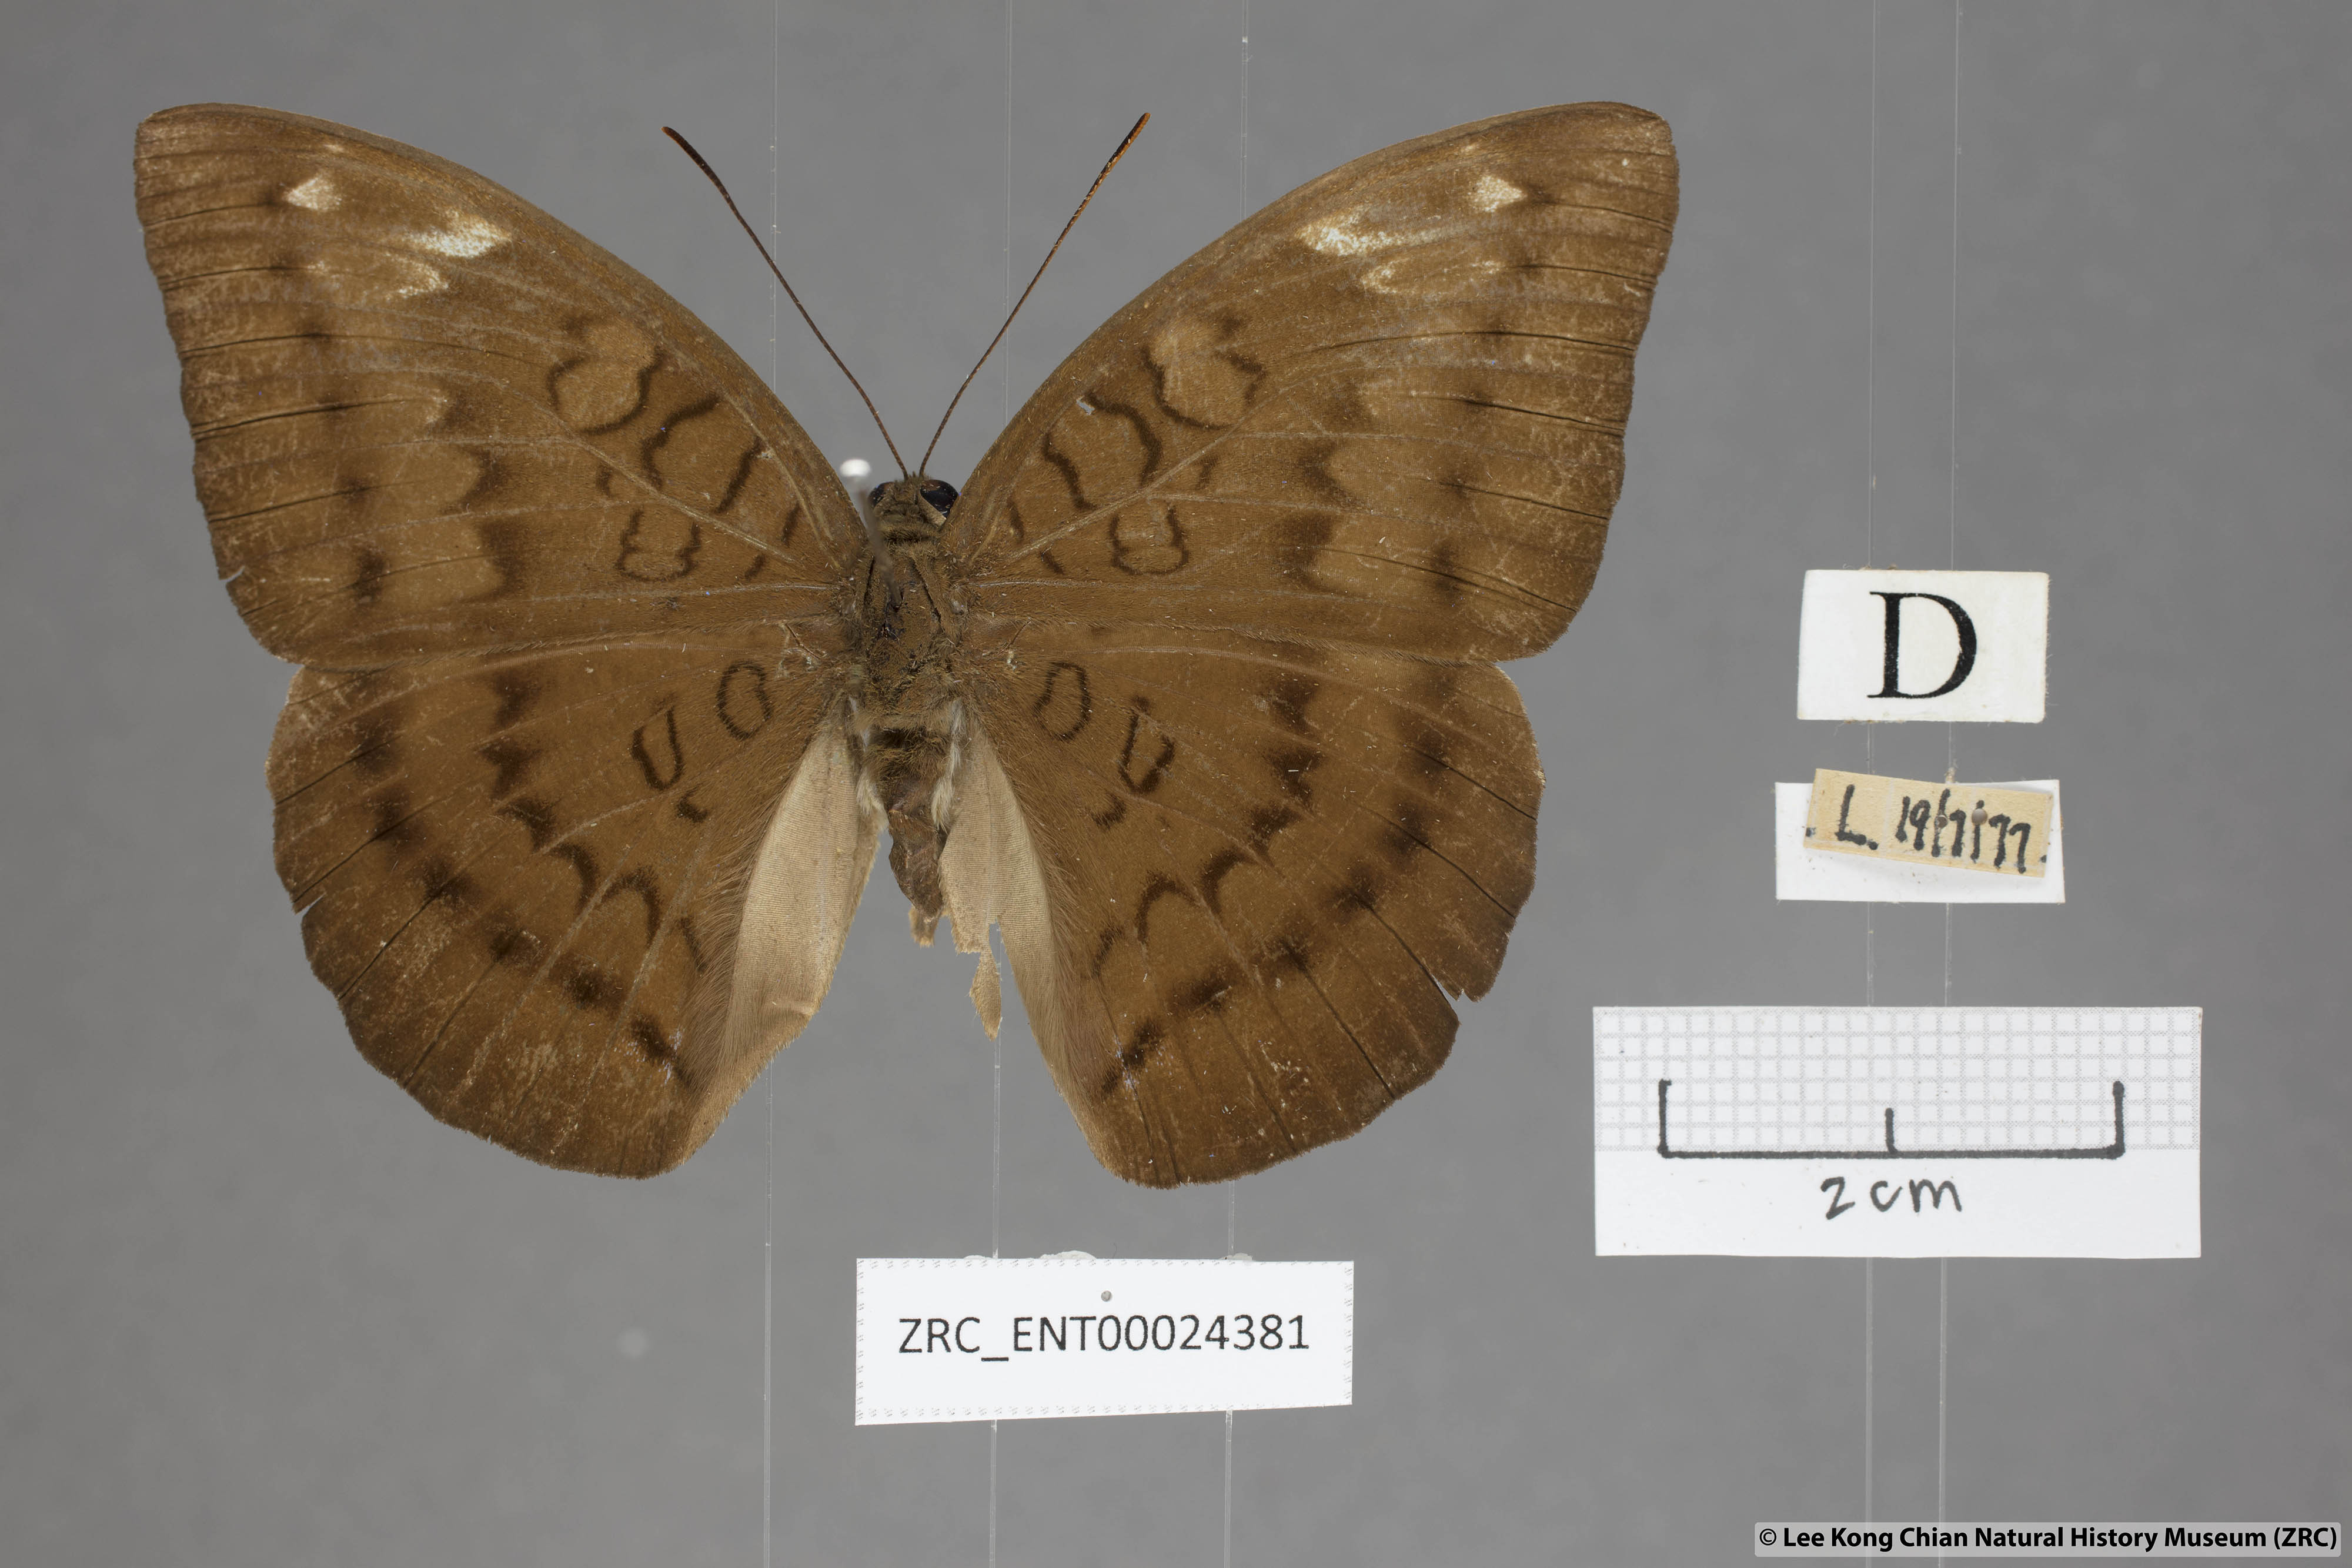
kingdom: Animalia
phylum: Arthropoda
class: Insecta
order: Lepidoptera
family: Nymphalidae
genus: Tanaecia
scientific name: Tanaecia julii
